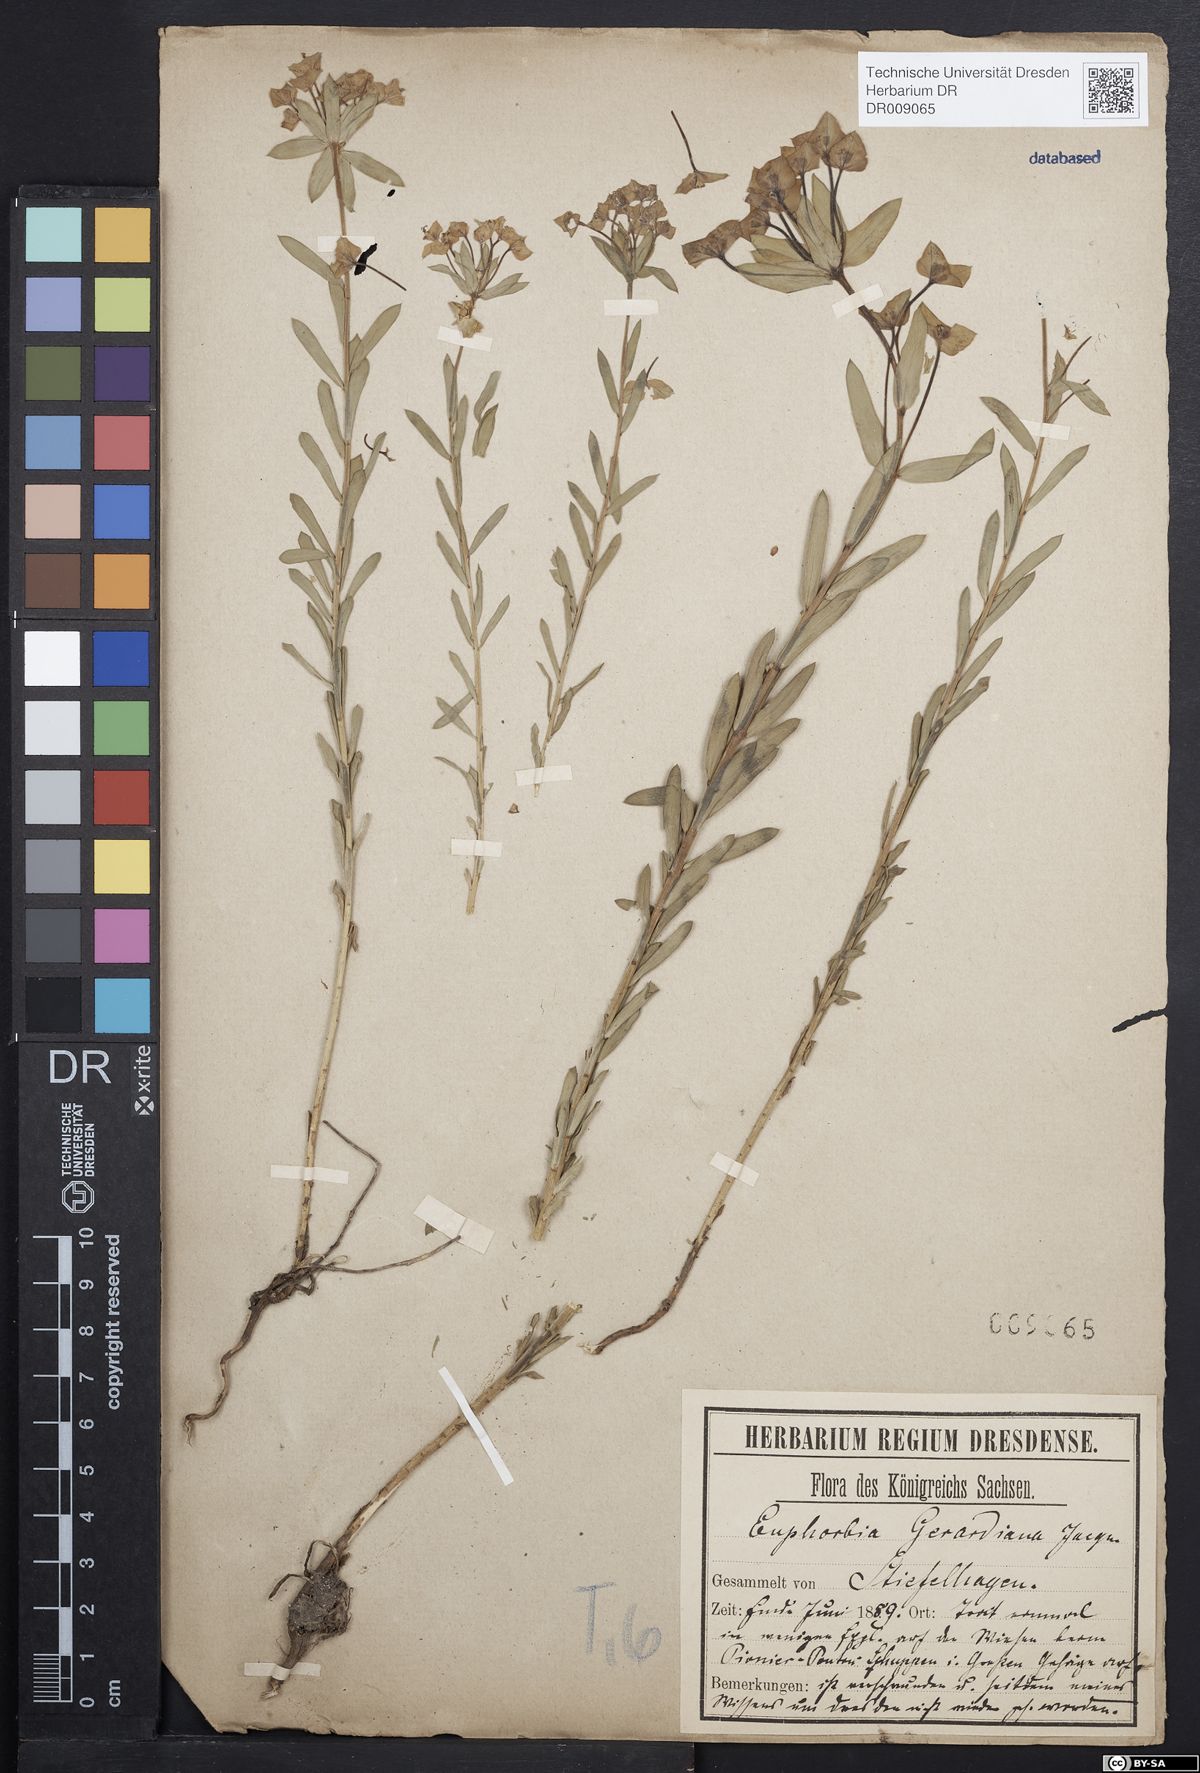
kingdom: Plantae
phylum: Tracheophyta
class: Magnoliopsida
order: Malpighiales
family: Euphorbiaceae
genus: Euphorbia
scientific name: Euphorbia seguieriana
